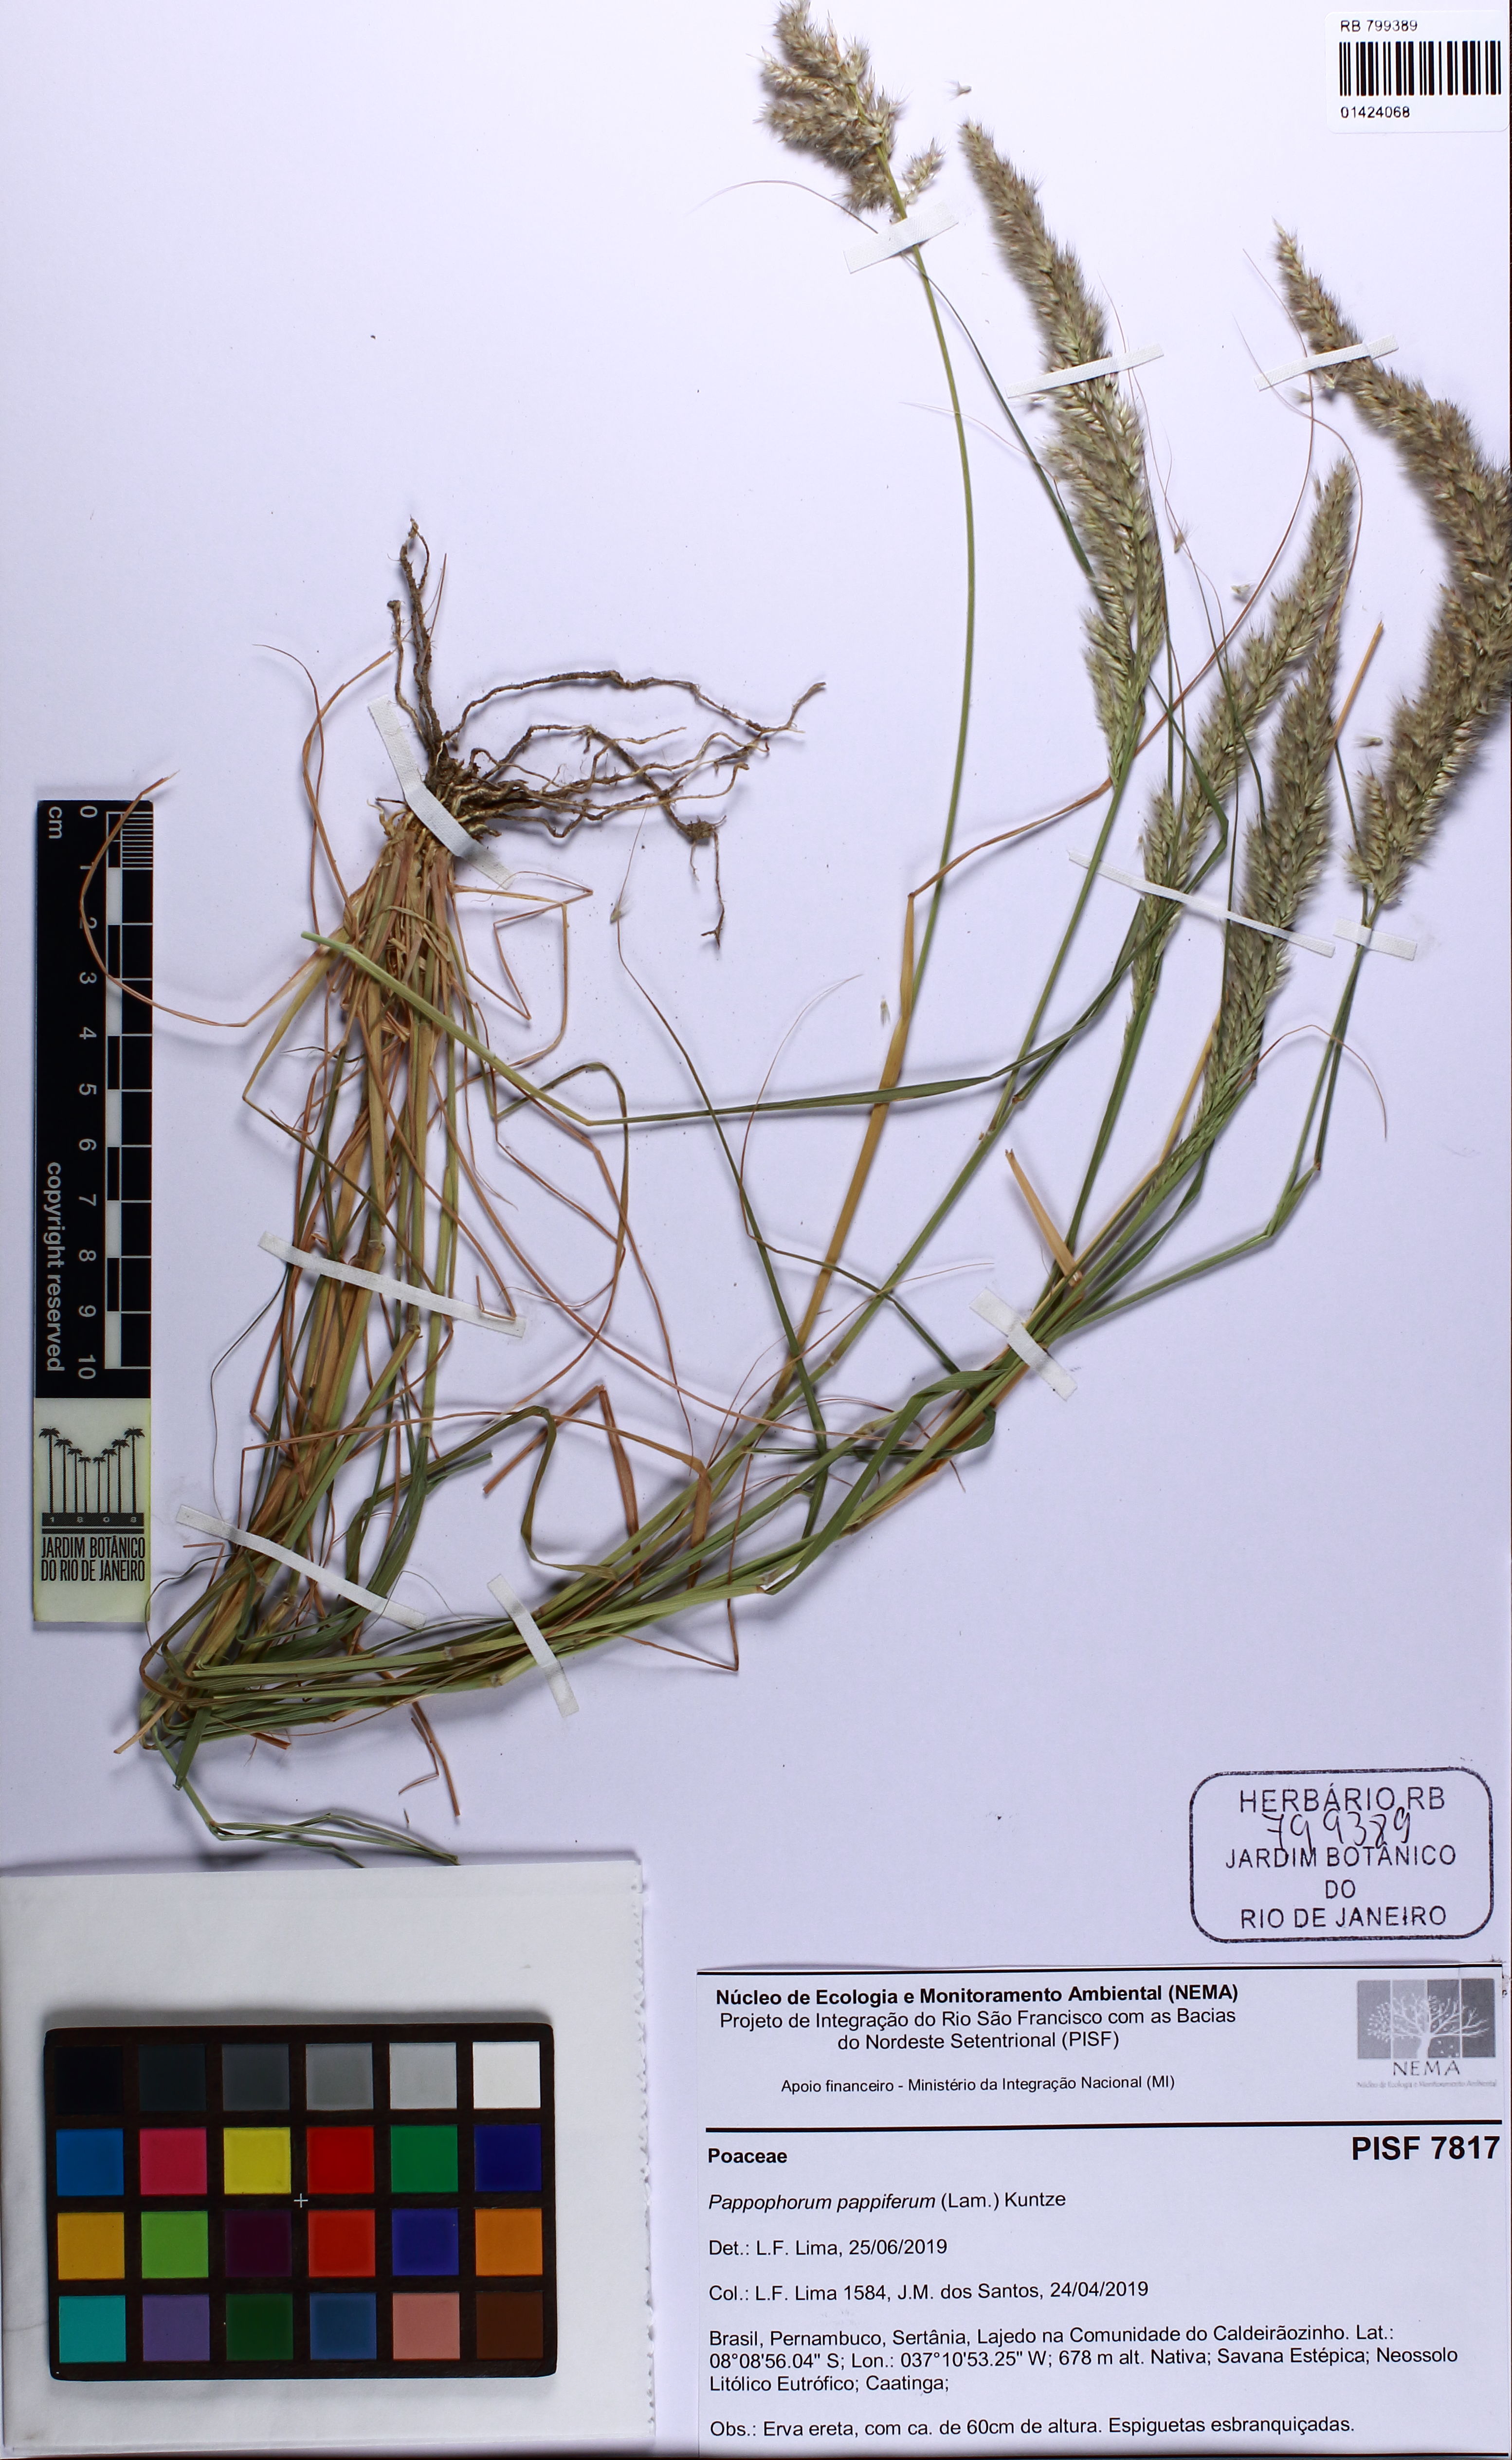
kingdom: Plantae
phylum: Tracheophyta
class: Liliopsida
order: Poales
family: Poaceae
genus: Pappophorum
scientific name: Pappophorum pappiferum
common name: Crabgrass
